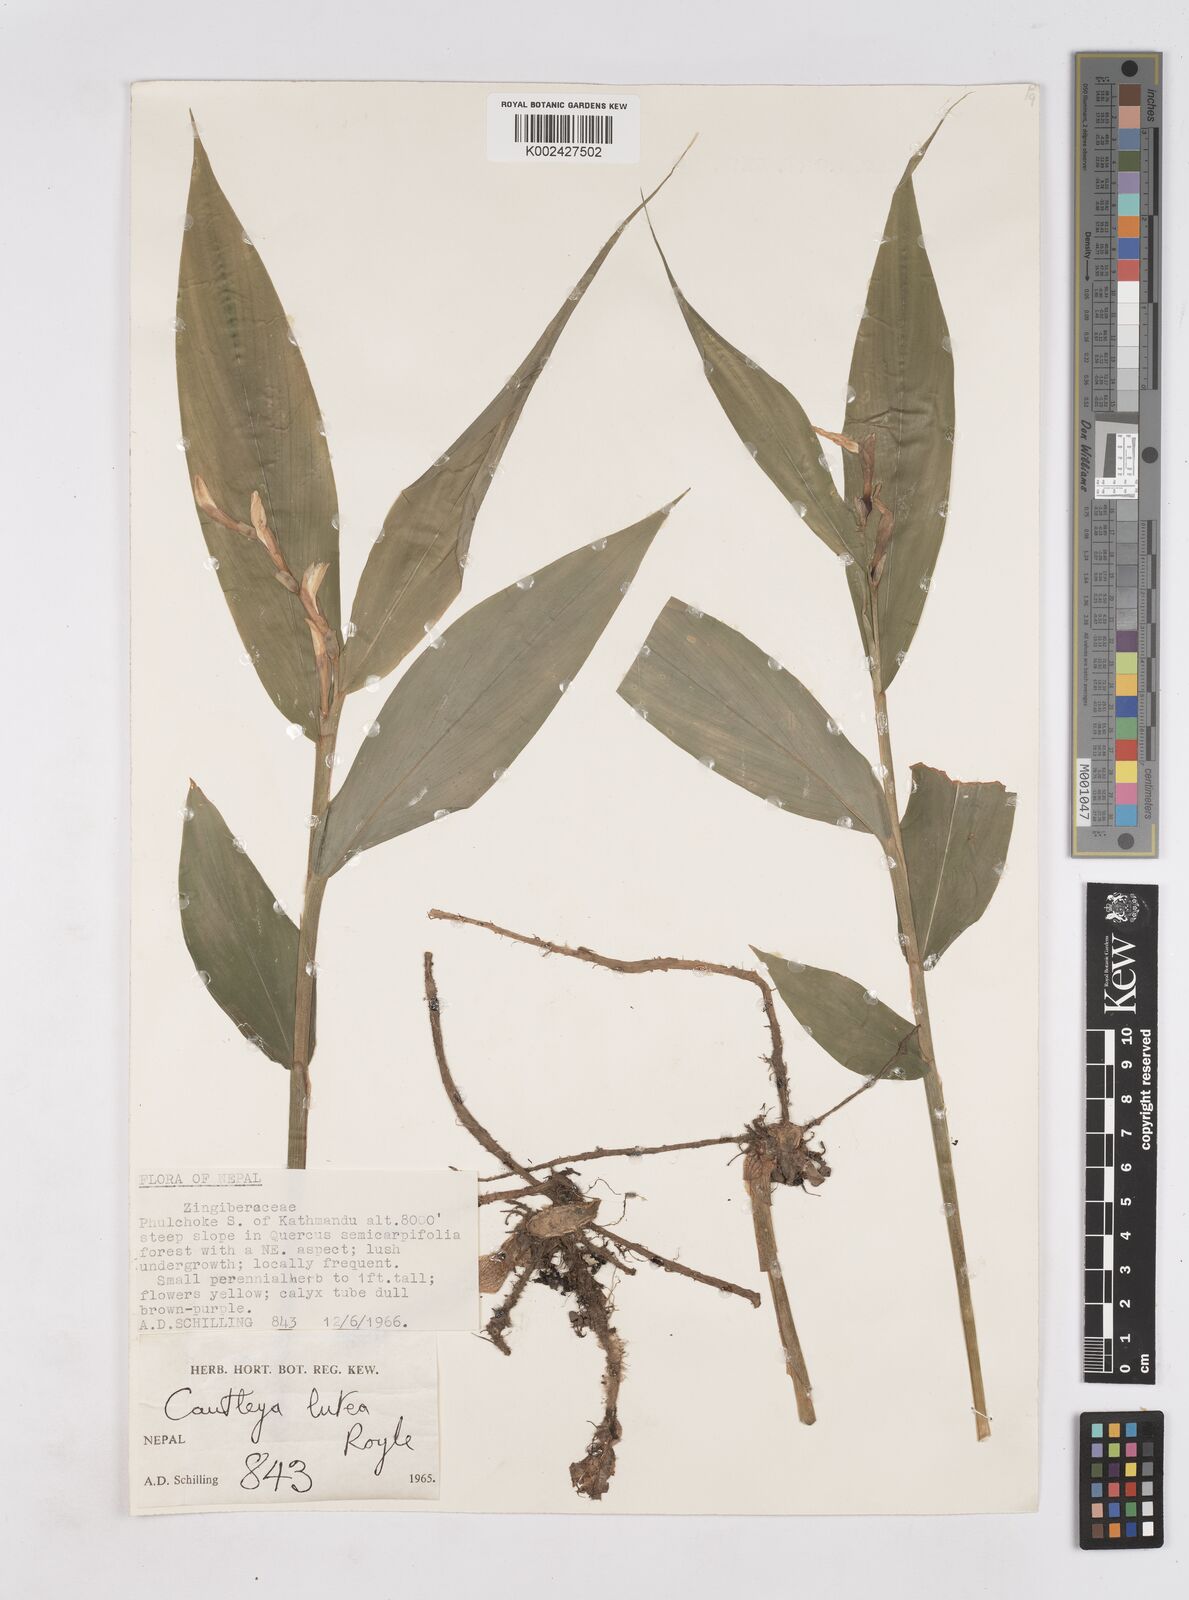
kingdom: Plantae
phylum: Tracheophyta
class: Liliopsida
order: Zingiberales
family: Zingiberaceae
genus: Cautleya
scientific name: Cautleya gracilis
